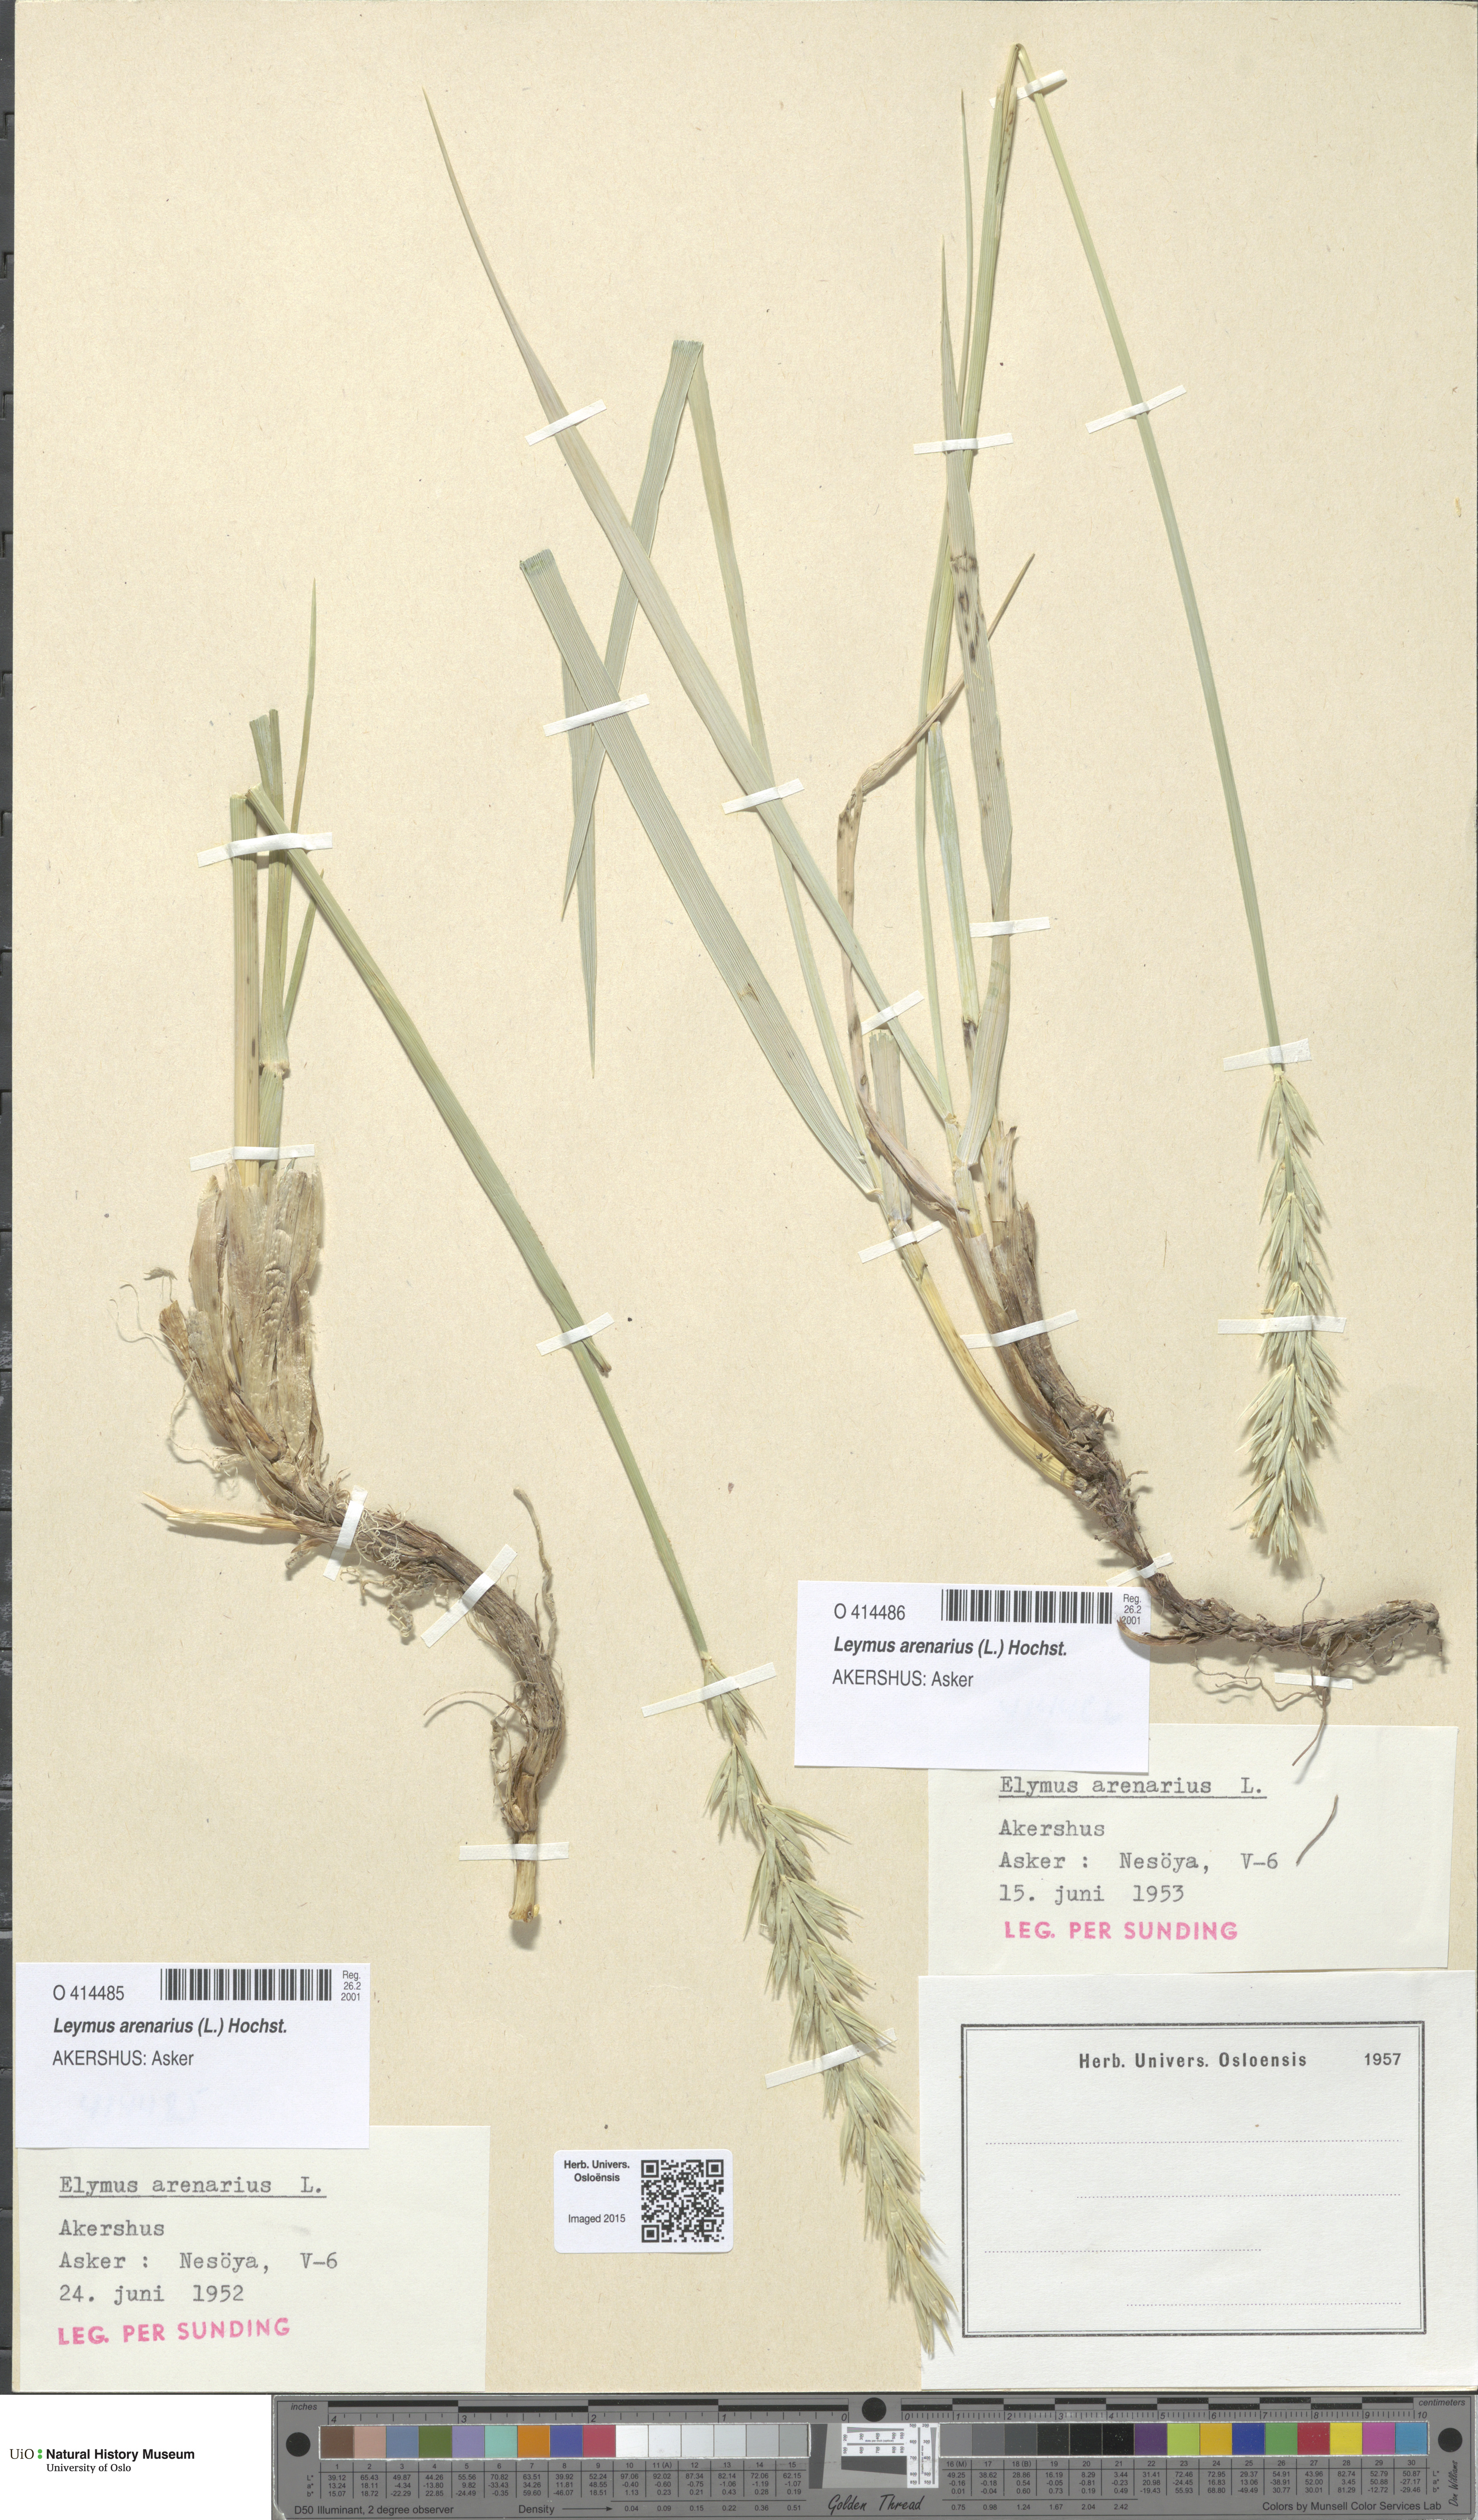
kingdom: Plantae
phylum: Tracheophyta
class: Liliopsida
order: Poales
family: Poaceae
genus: Leymus
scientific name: Leymus arenarius
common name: Lyme-grass
